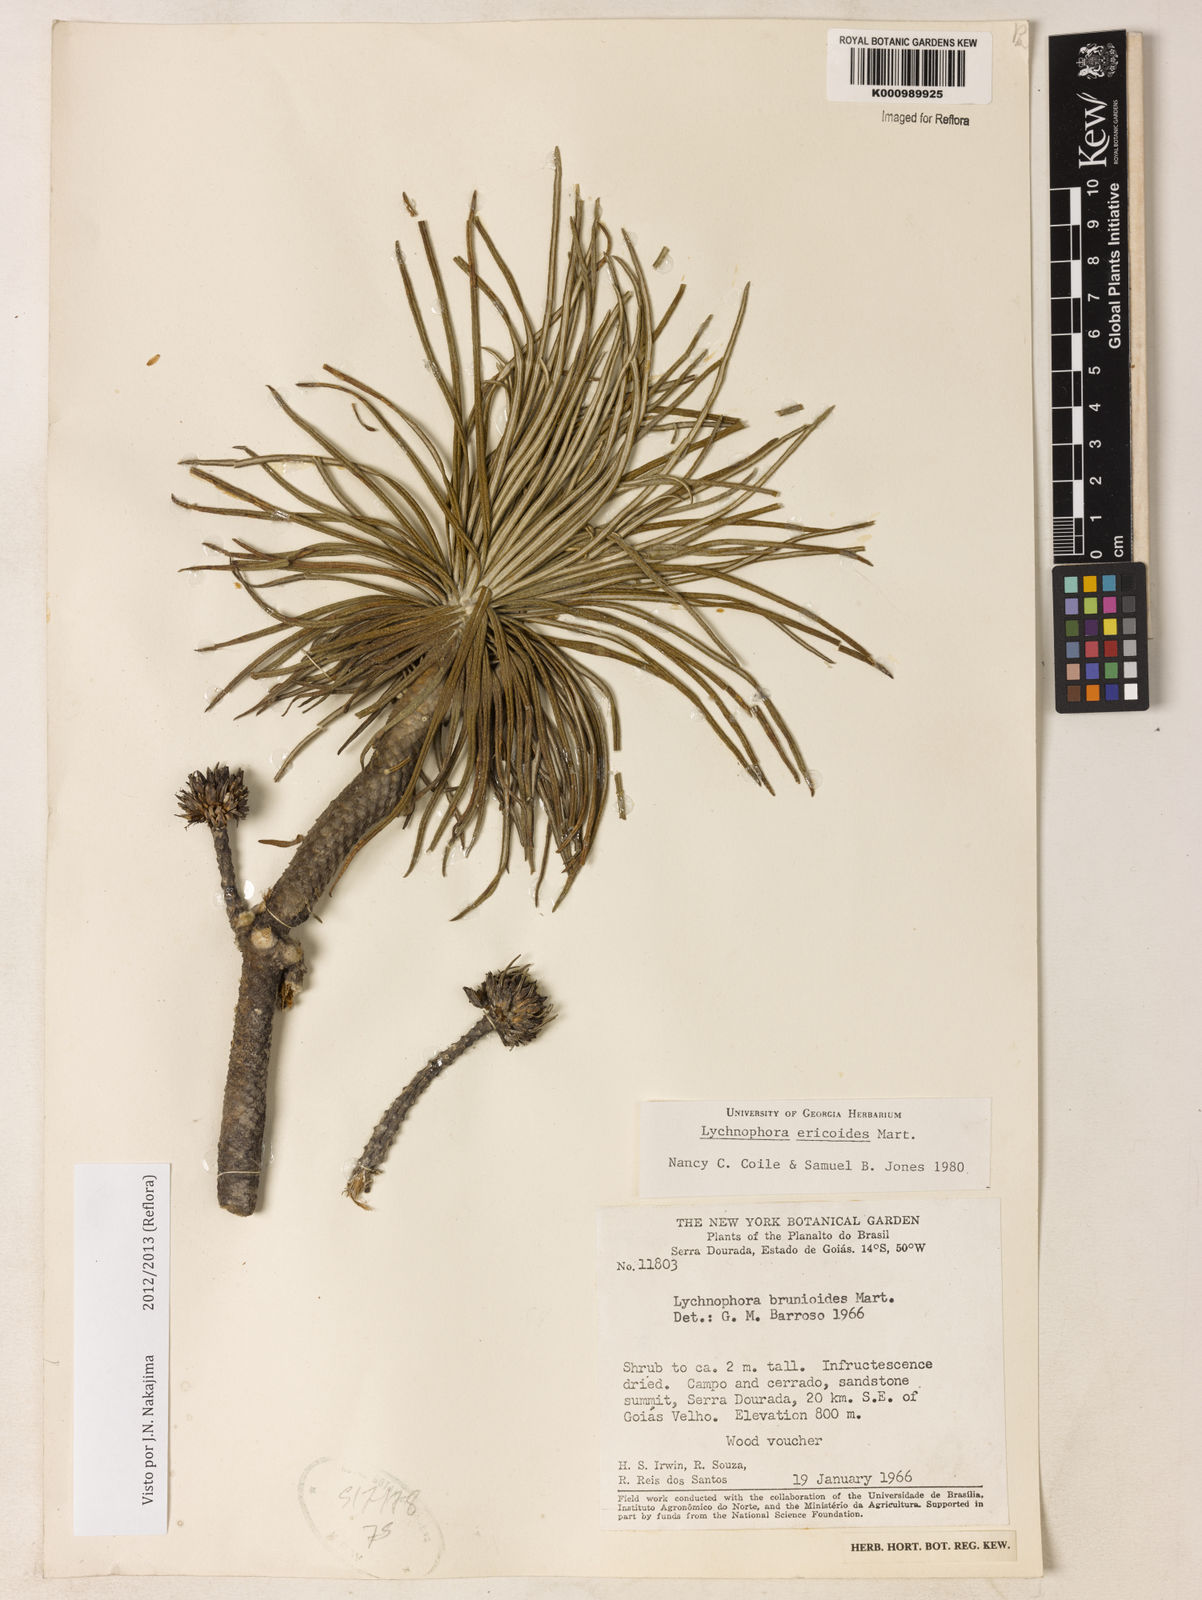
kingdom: Plantae
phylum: Tracheophyta
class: Magnoliopsida
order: Asterales
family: Asteraceae
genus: Lychnophora
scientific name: Lychnophora ericoides
